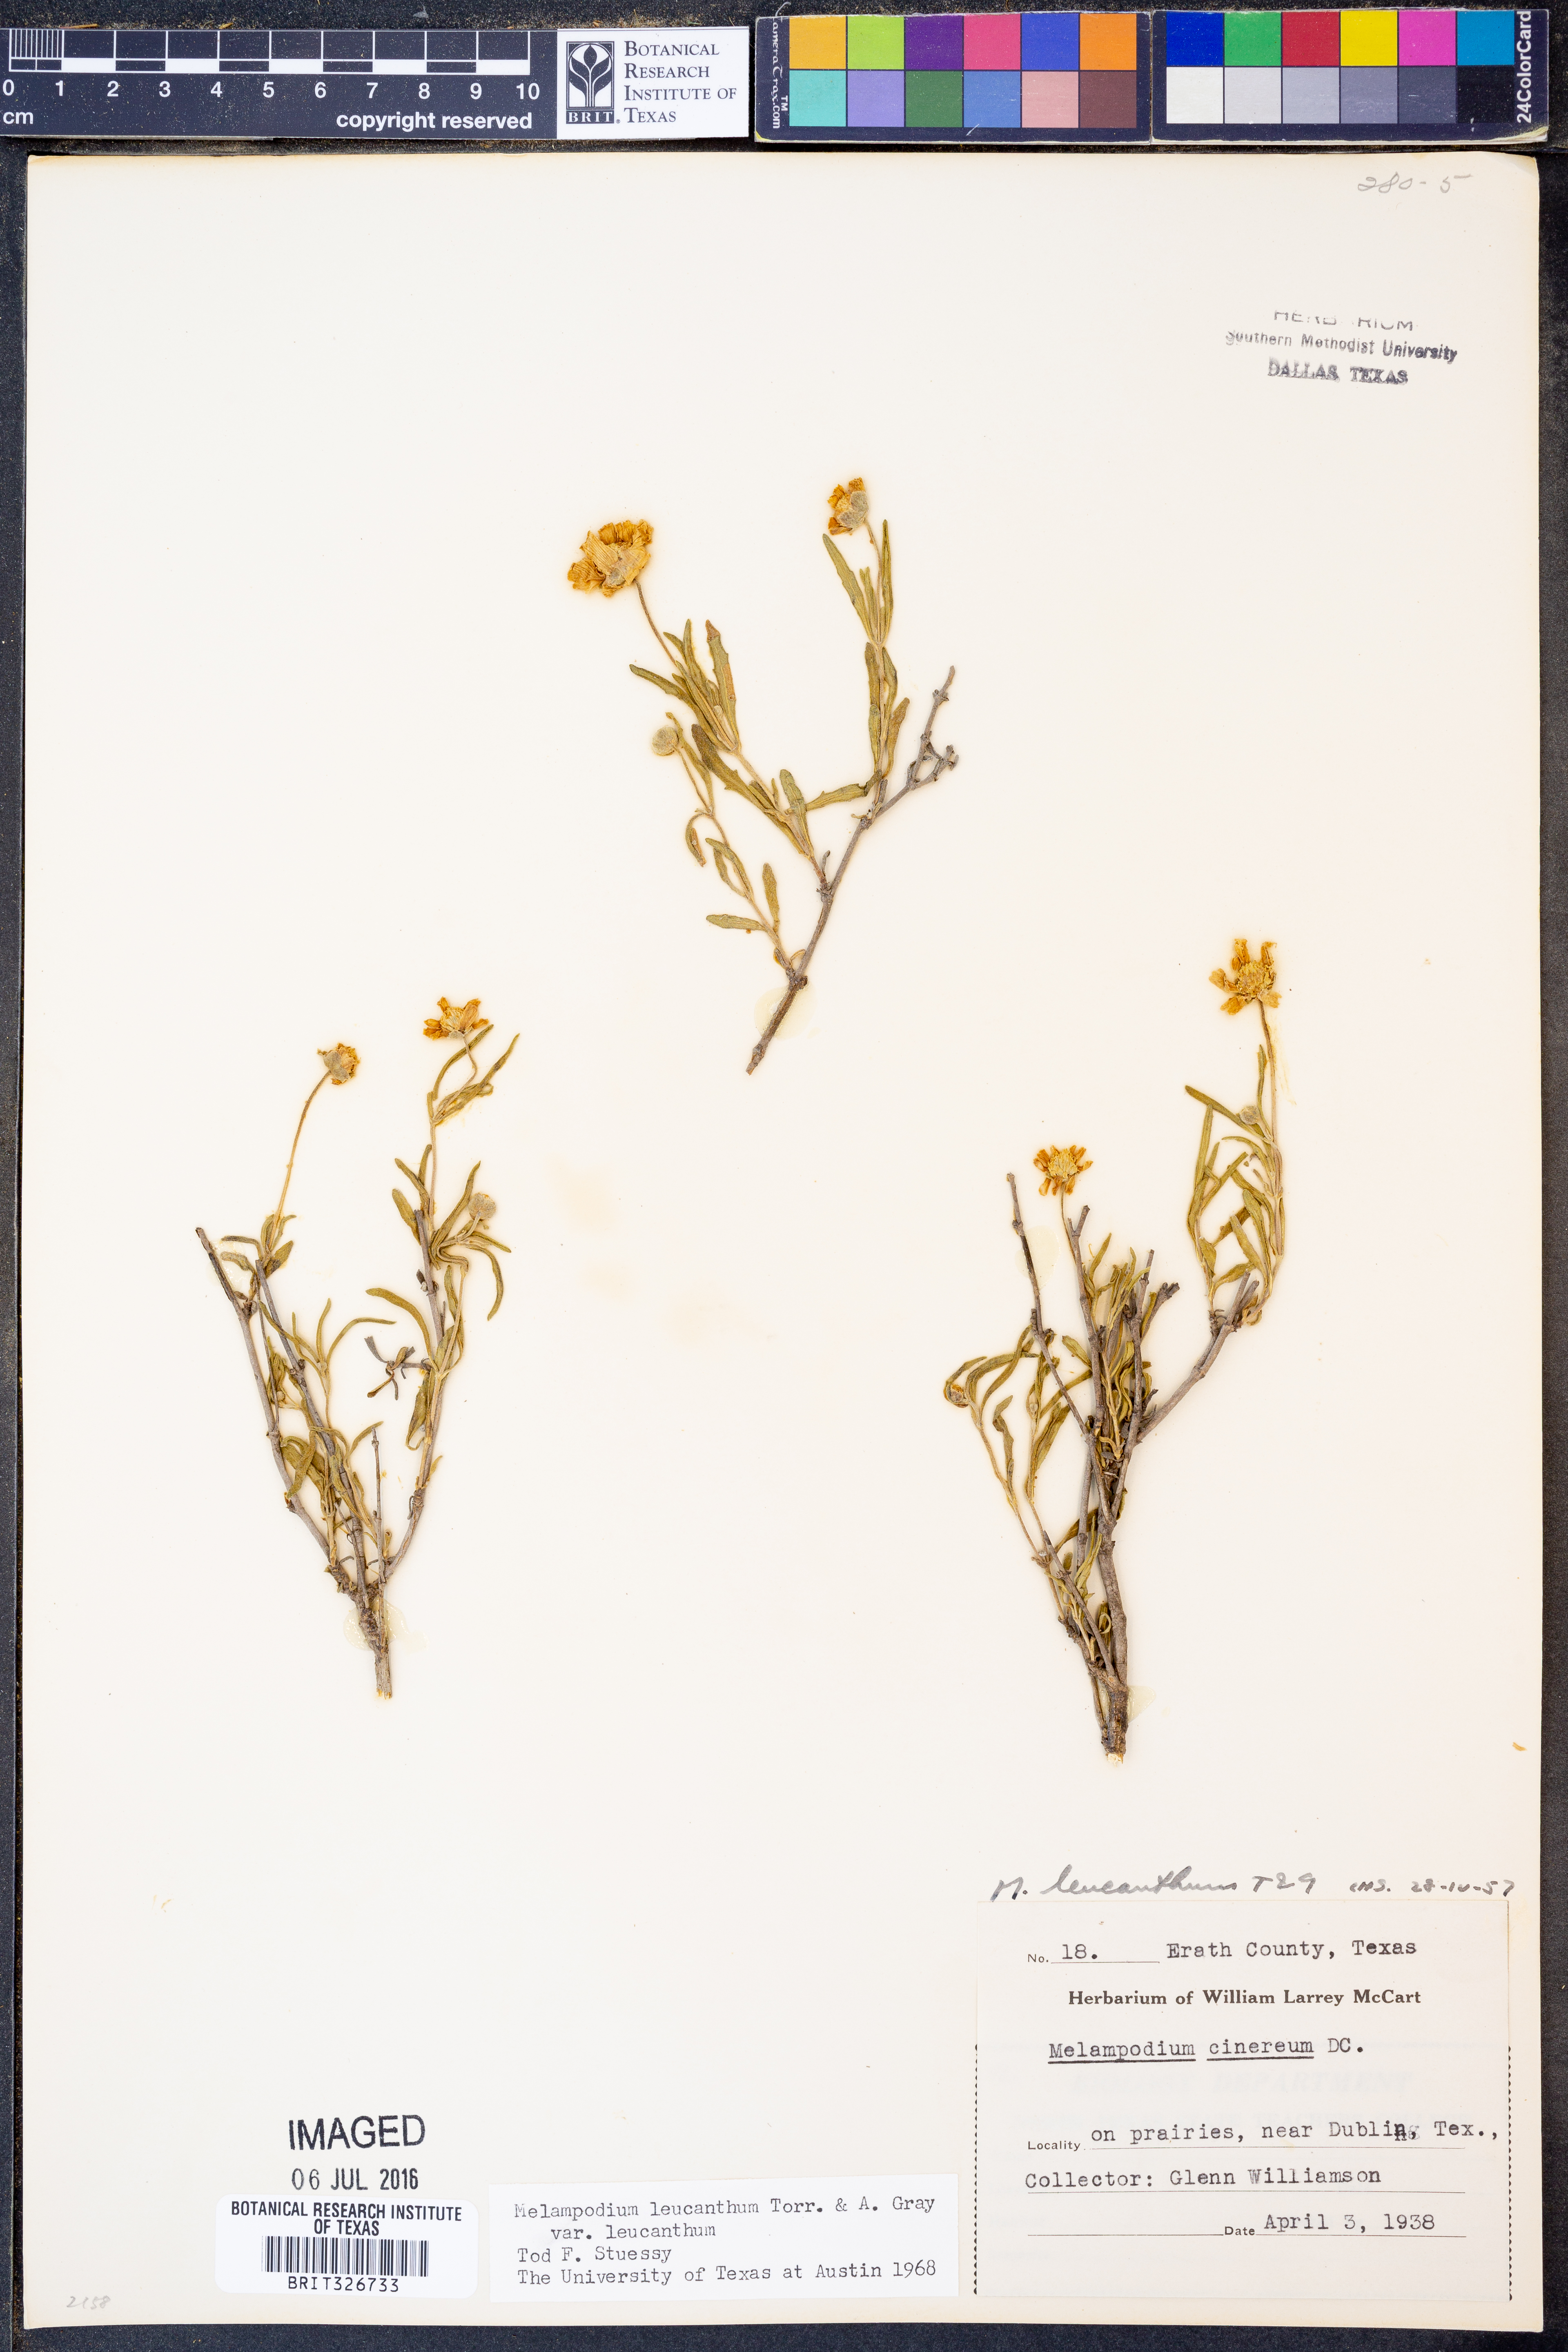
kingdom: Plantae
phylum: Tracheophyta
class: Magnoliopsida
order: Asterales
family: Asteraceae
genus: Melampodium
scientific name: Melampodium leucanthum
